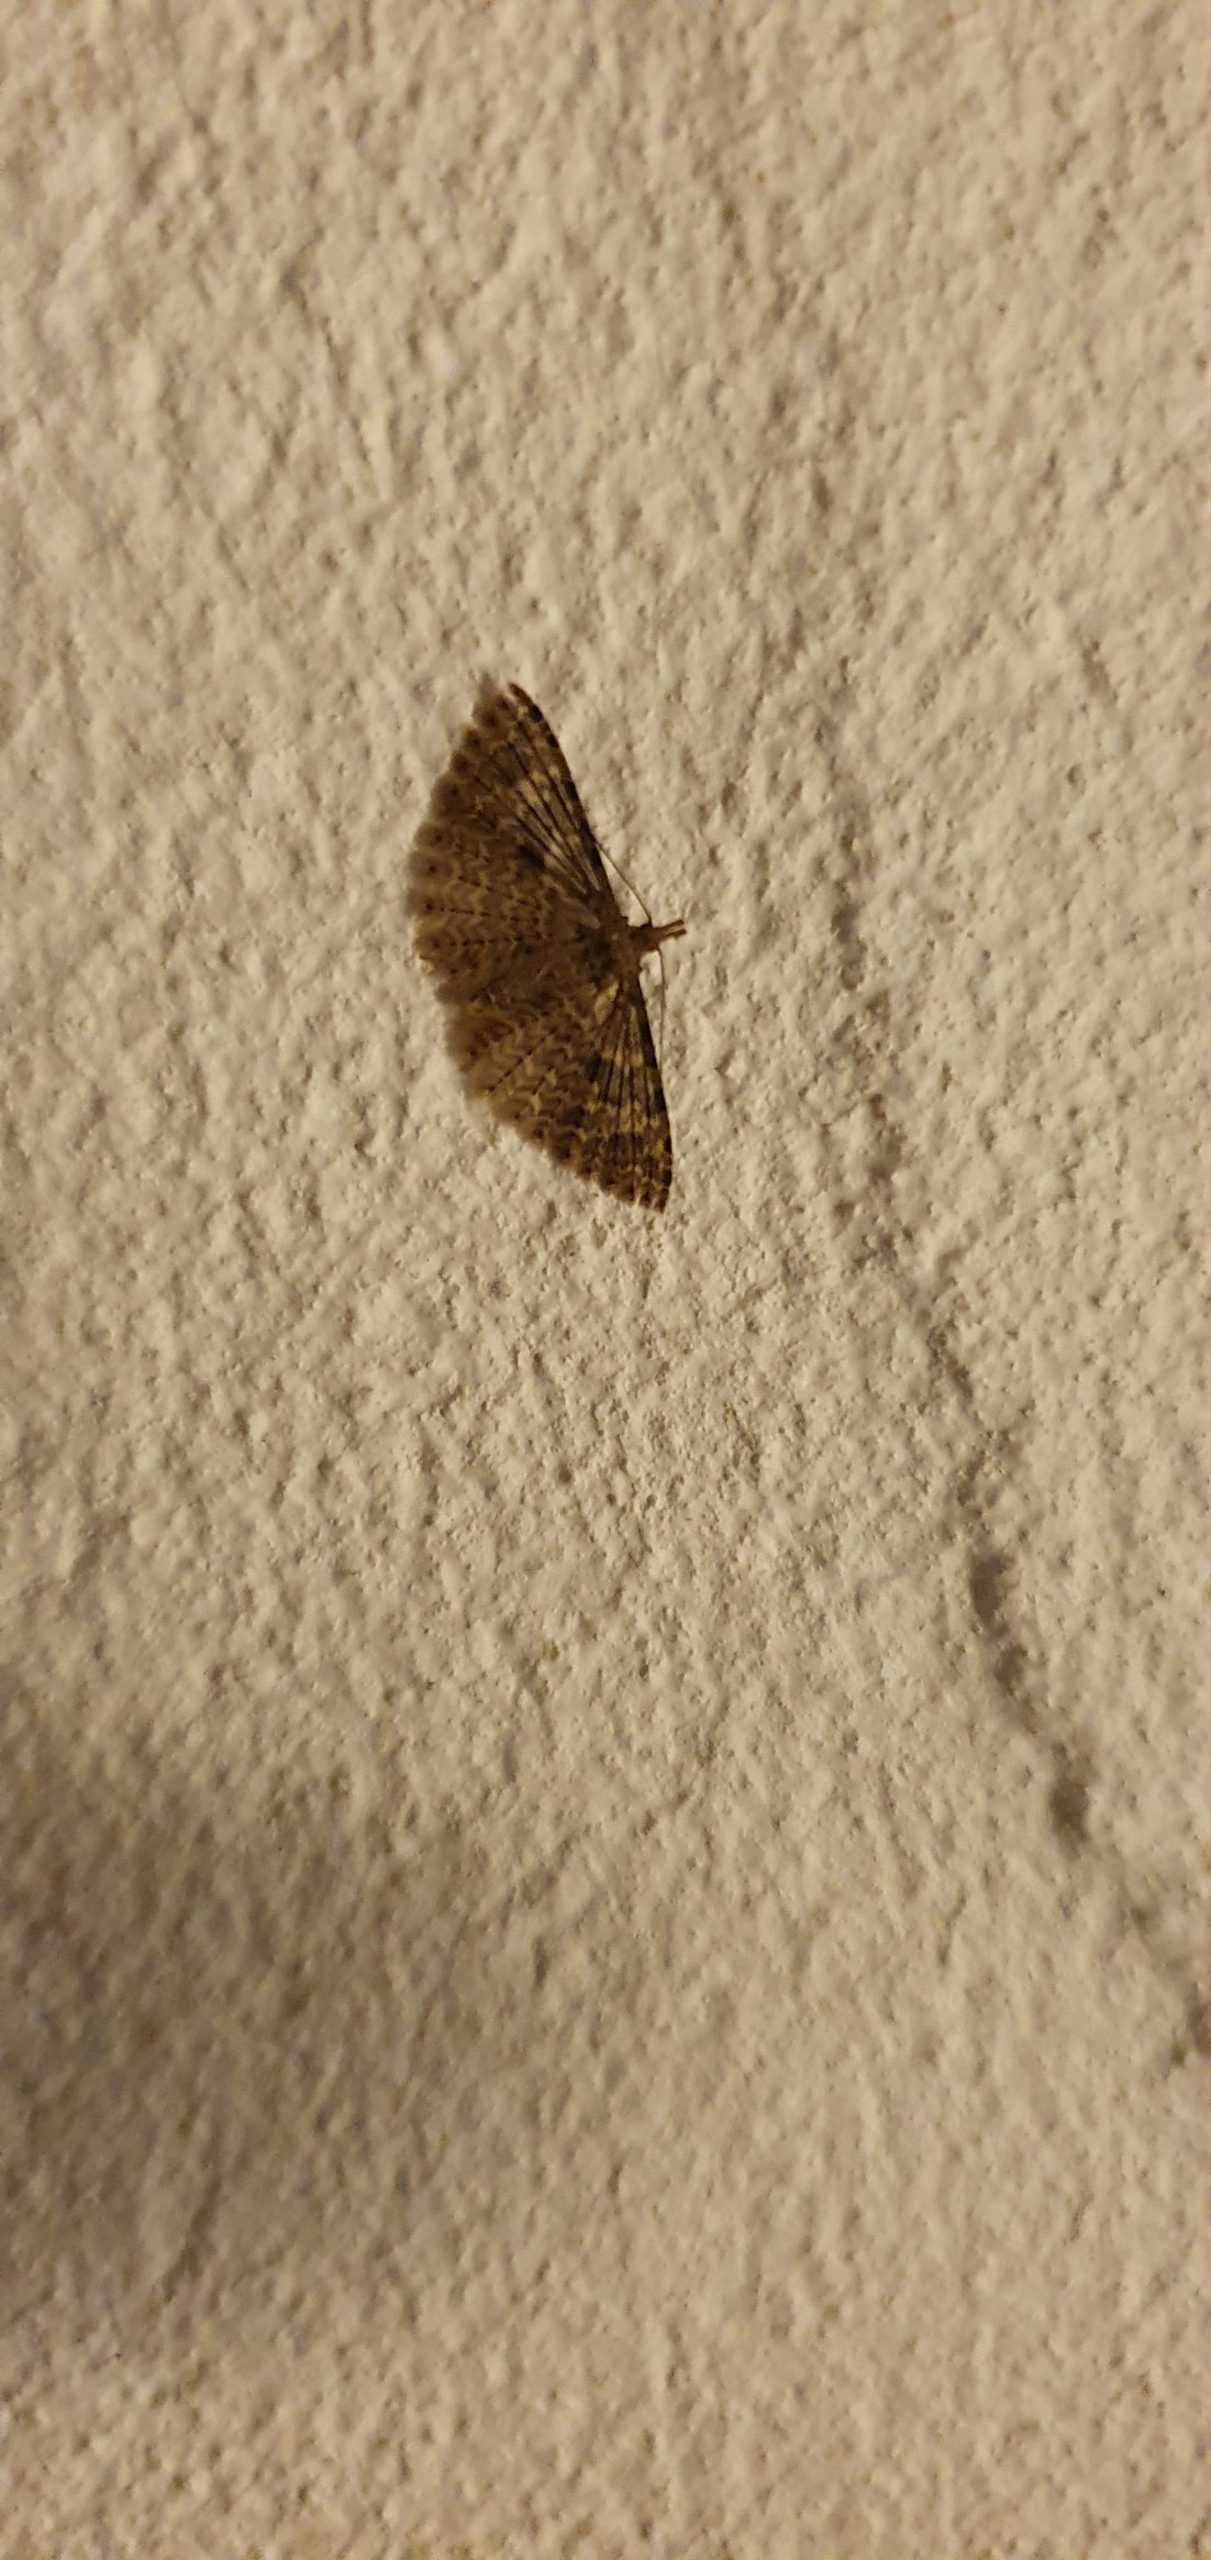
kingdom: Animalia
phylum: Arthropoda
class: Insecta
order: Lepidoptera
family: Alucitidae
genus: Alucita
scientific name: Alucita hexadactyla
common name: Kaprifoliefjermøl
